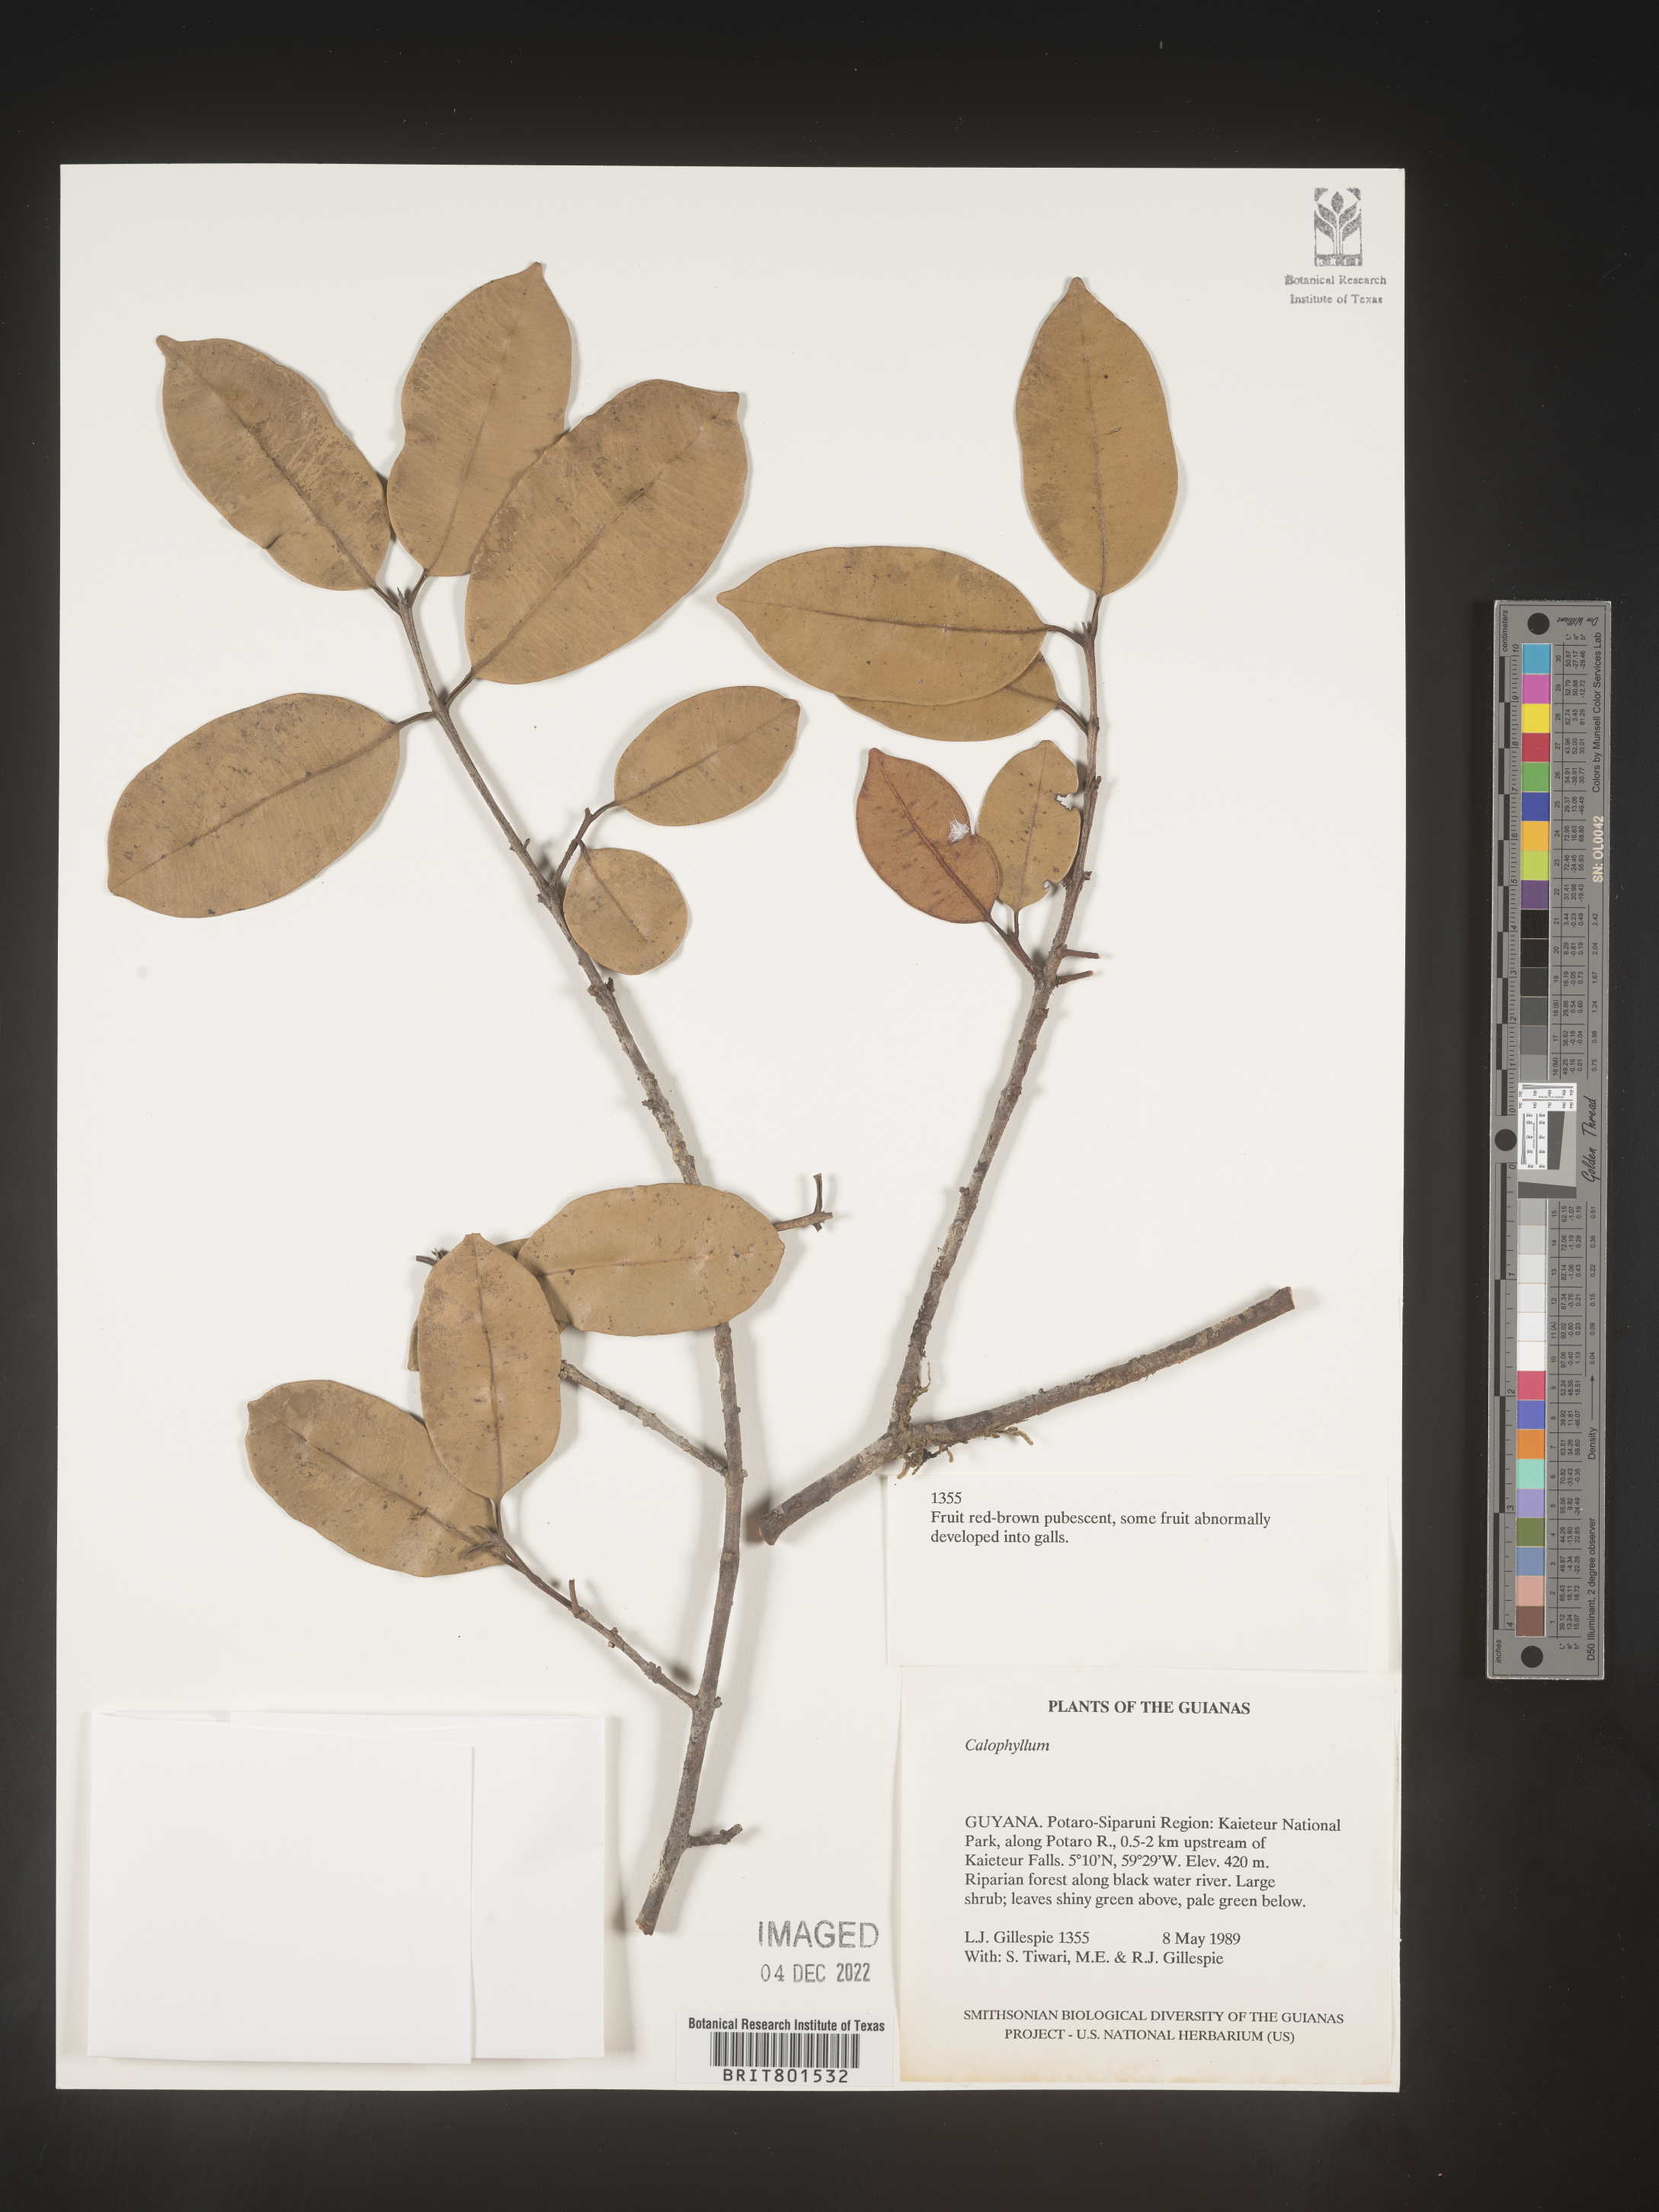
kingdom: Plantae
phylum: Tracheophyta
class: Magnoliopsida
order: Malpighiales
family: Calophyllaceae
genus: Calophyllum
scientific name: Calophyllum
